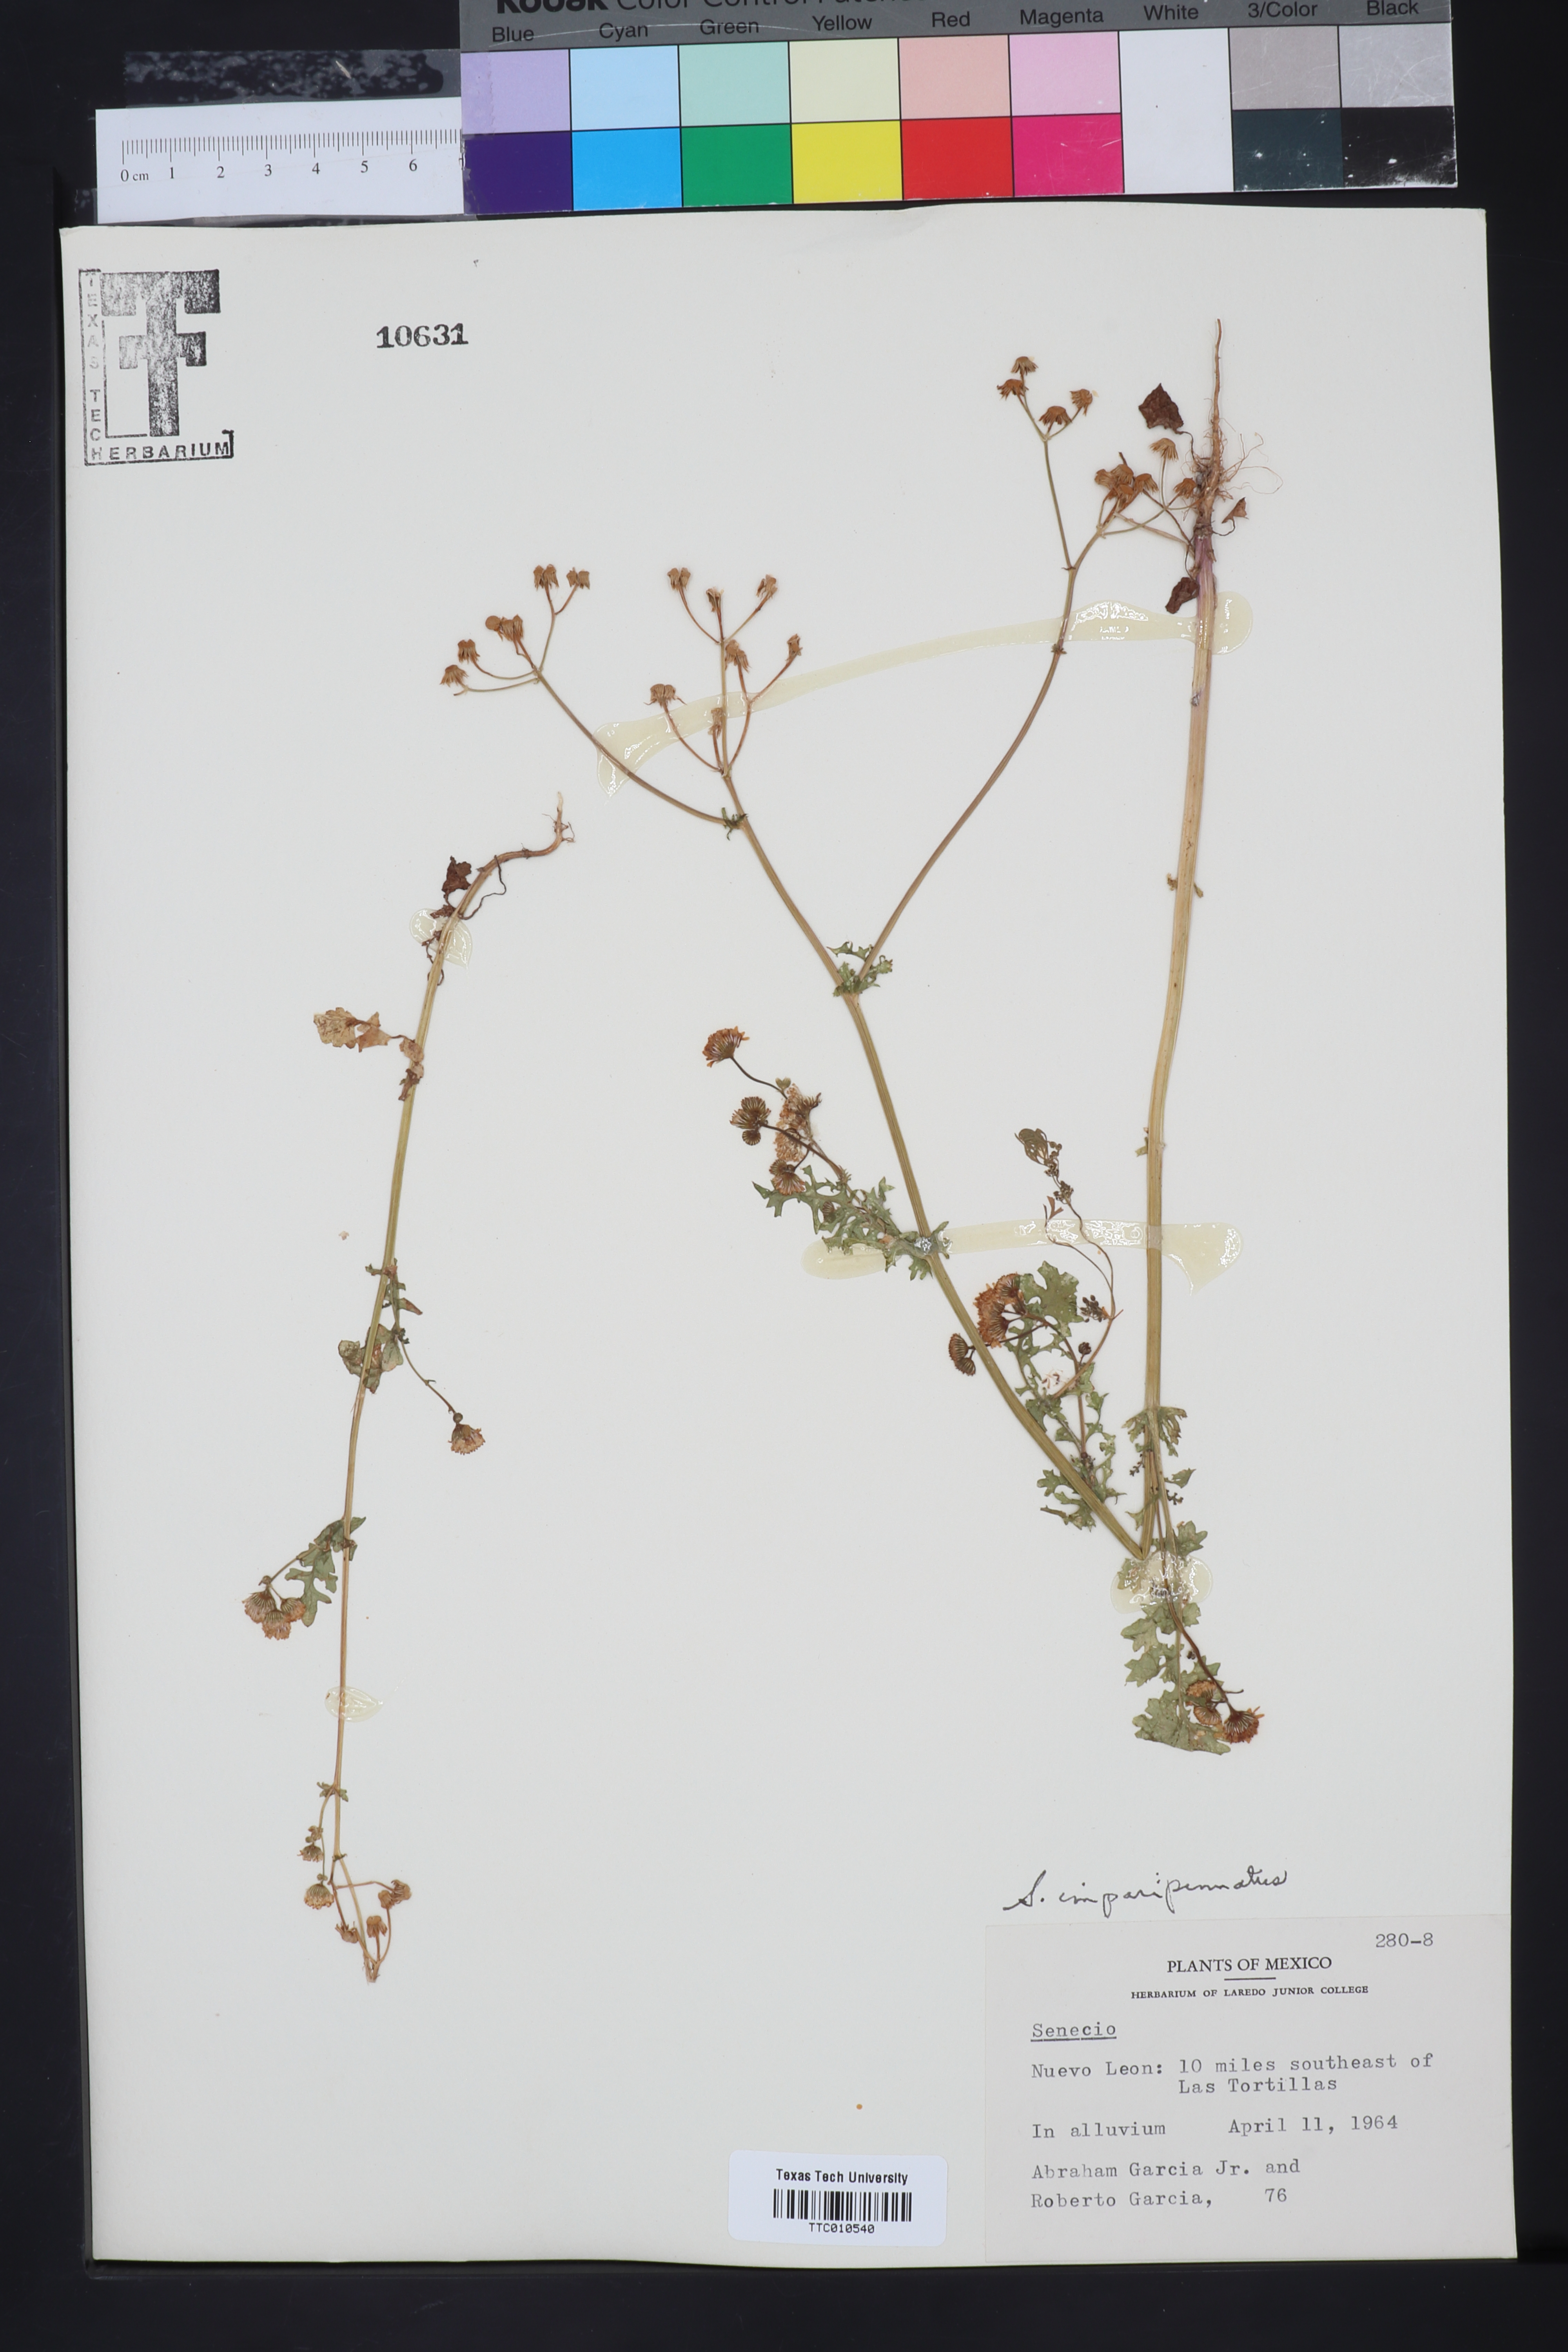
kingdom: Plantae
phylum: Tracheophyta
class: Magnoliopsida
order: Asterales
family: Asteraceae
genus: Packera
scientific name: Packera tampicana
